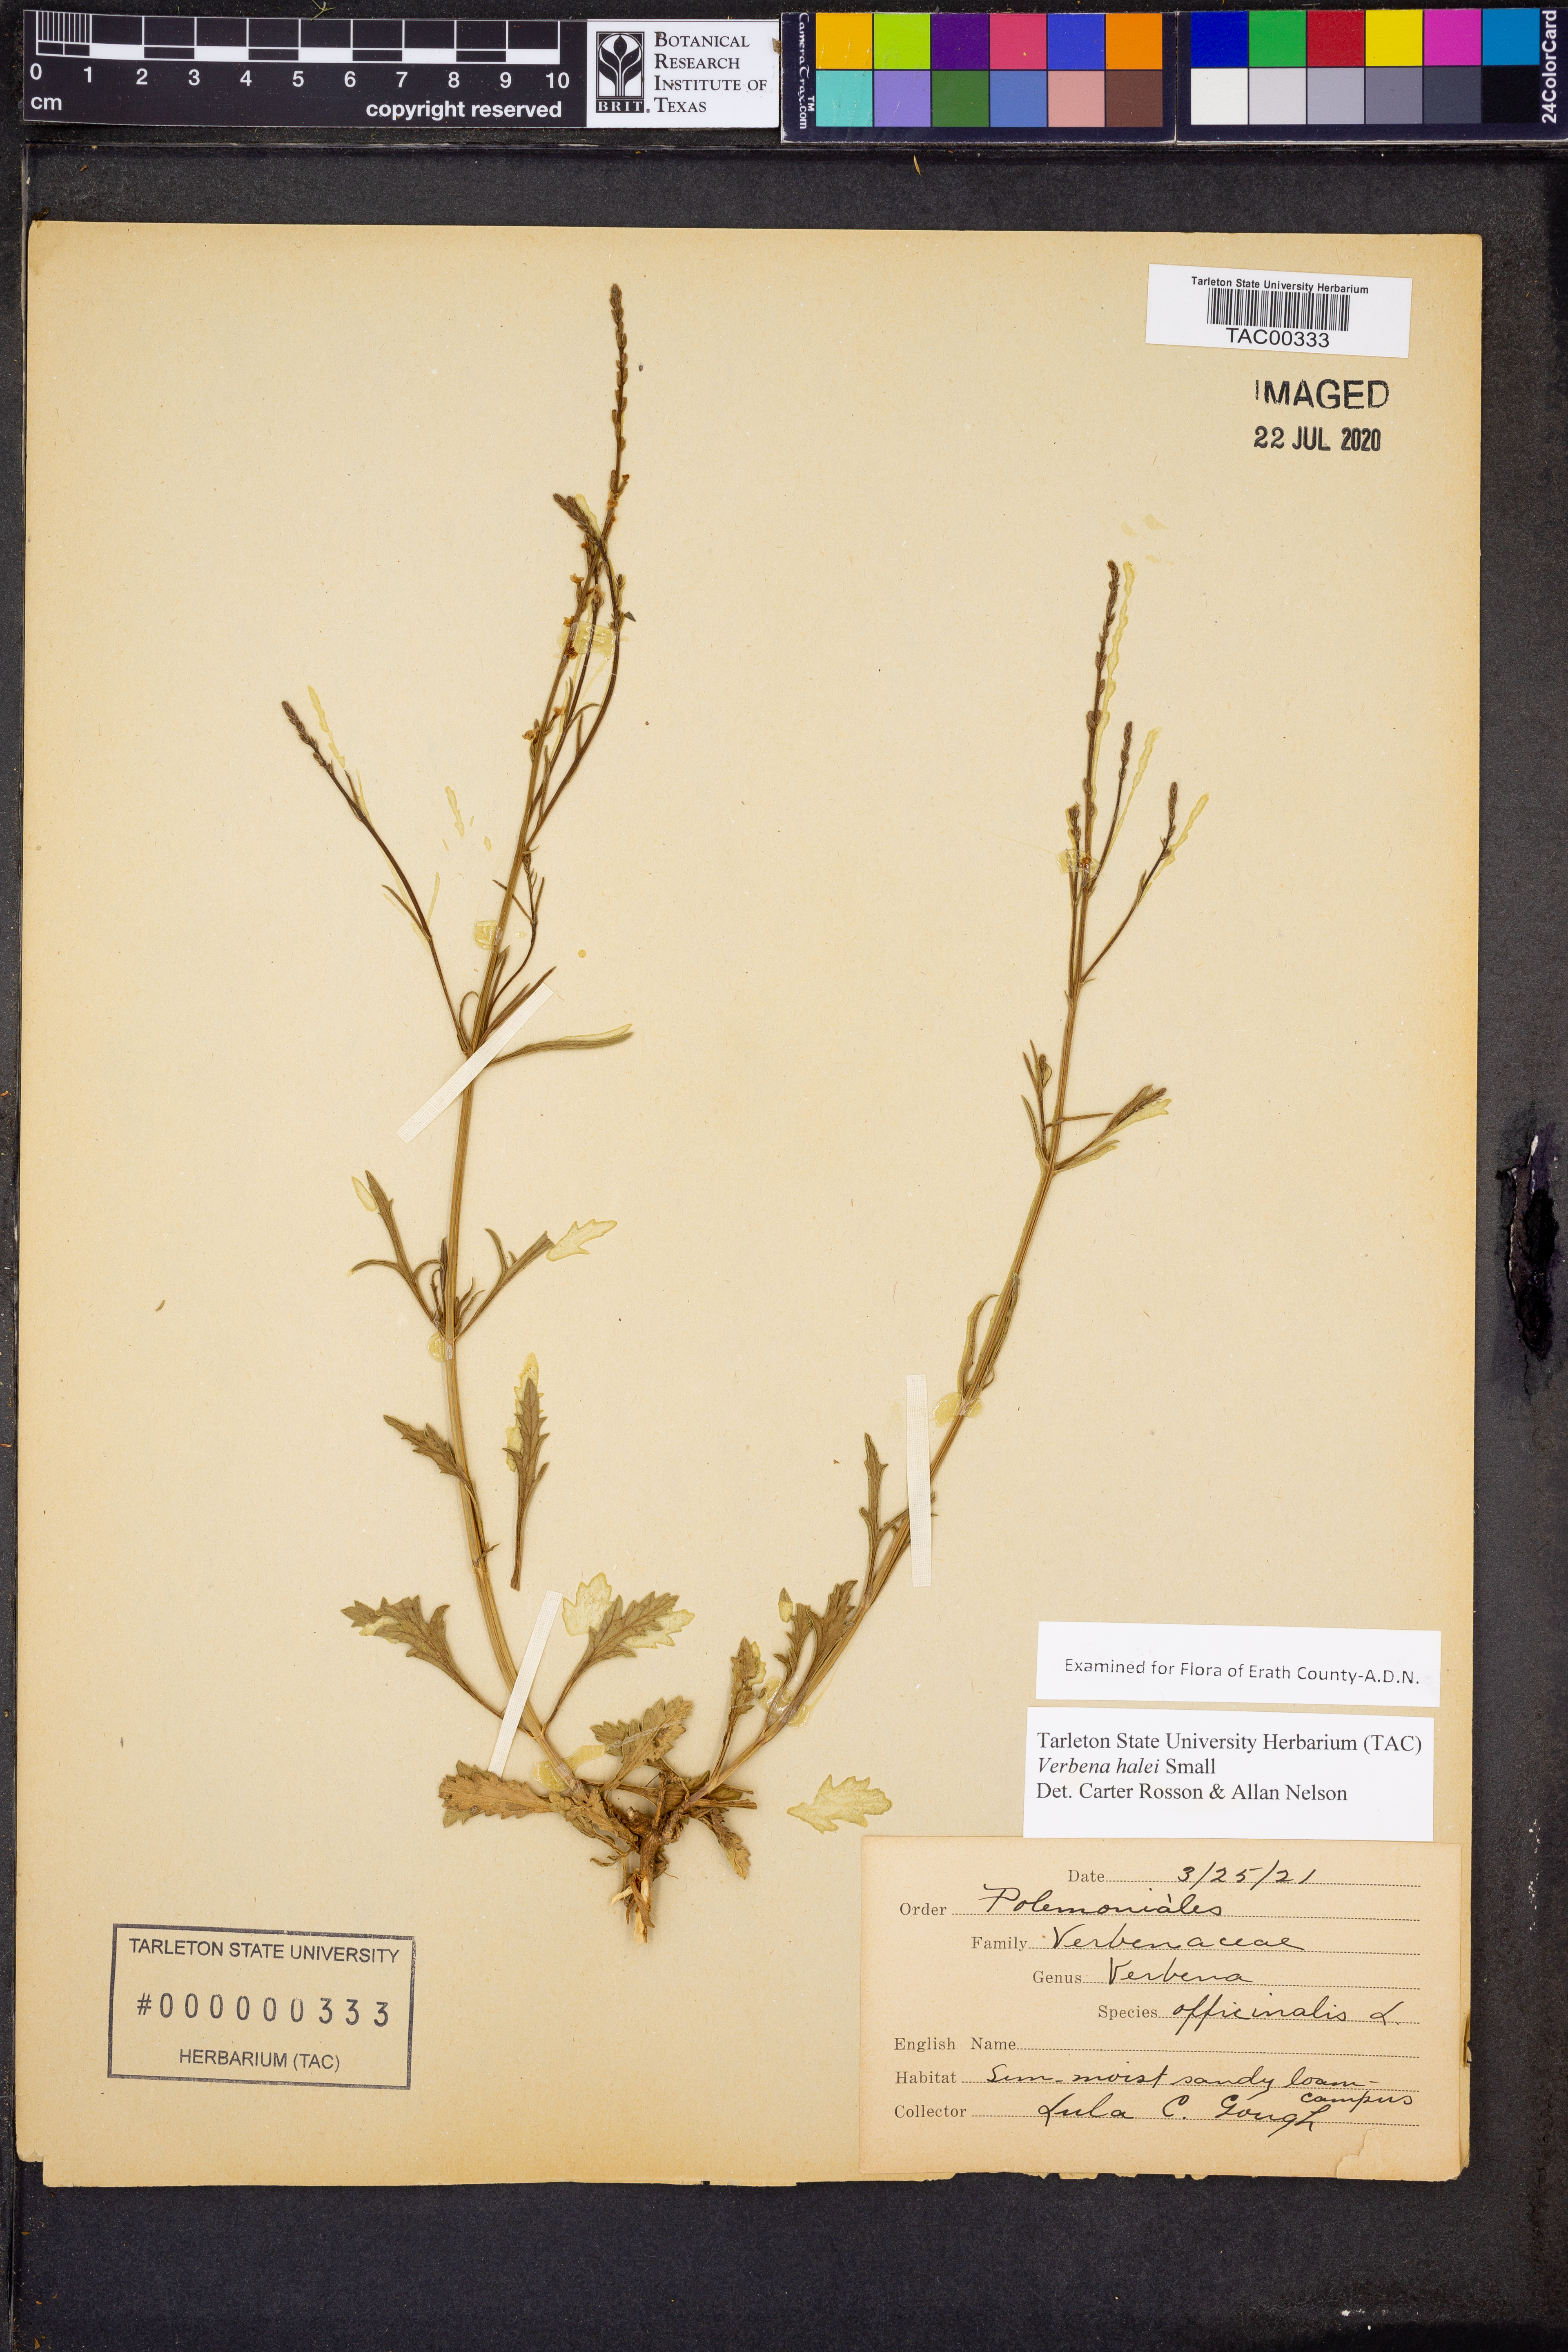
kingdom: Plantae
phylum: Tracheophyta
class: Magnoliopsida
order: Lamiales
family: Verbenaceae
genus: Verbena
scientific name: Verbena halei
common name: Texas vervain
